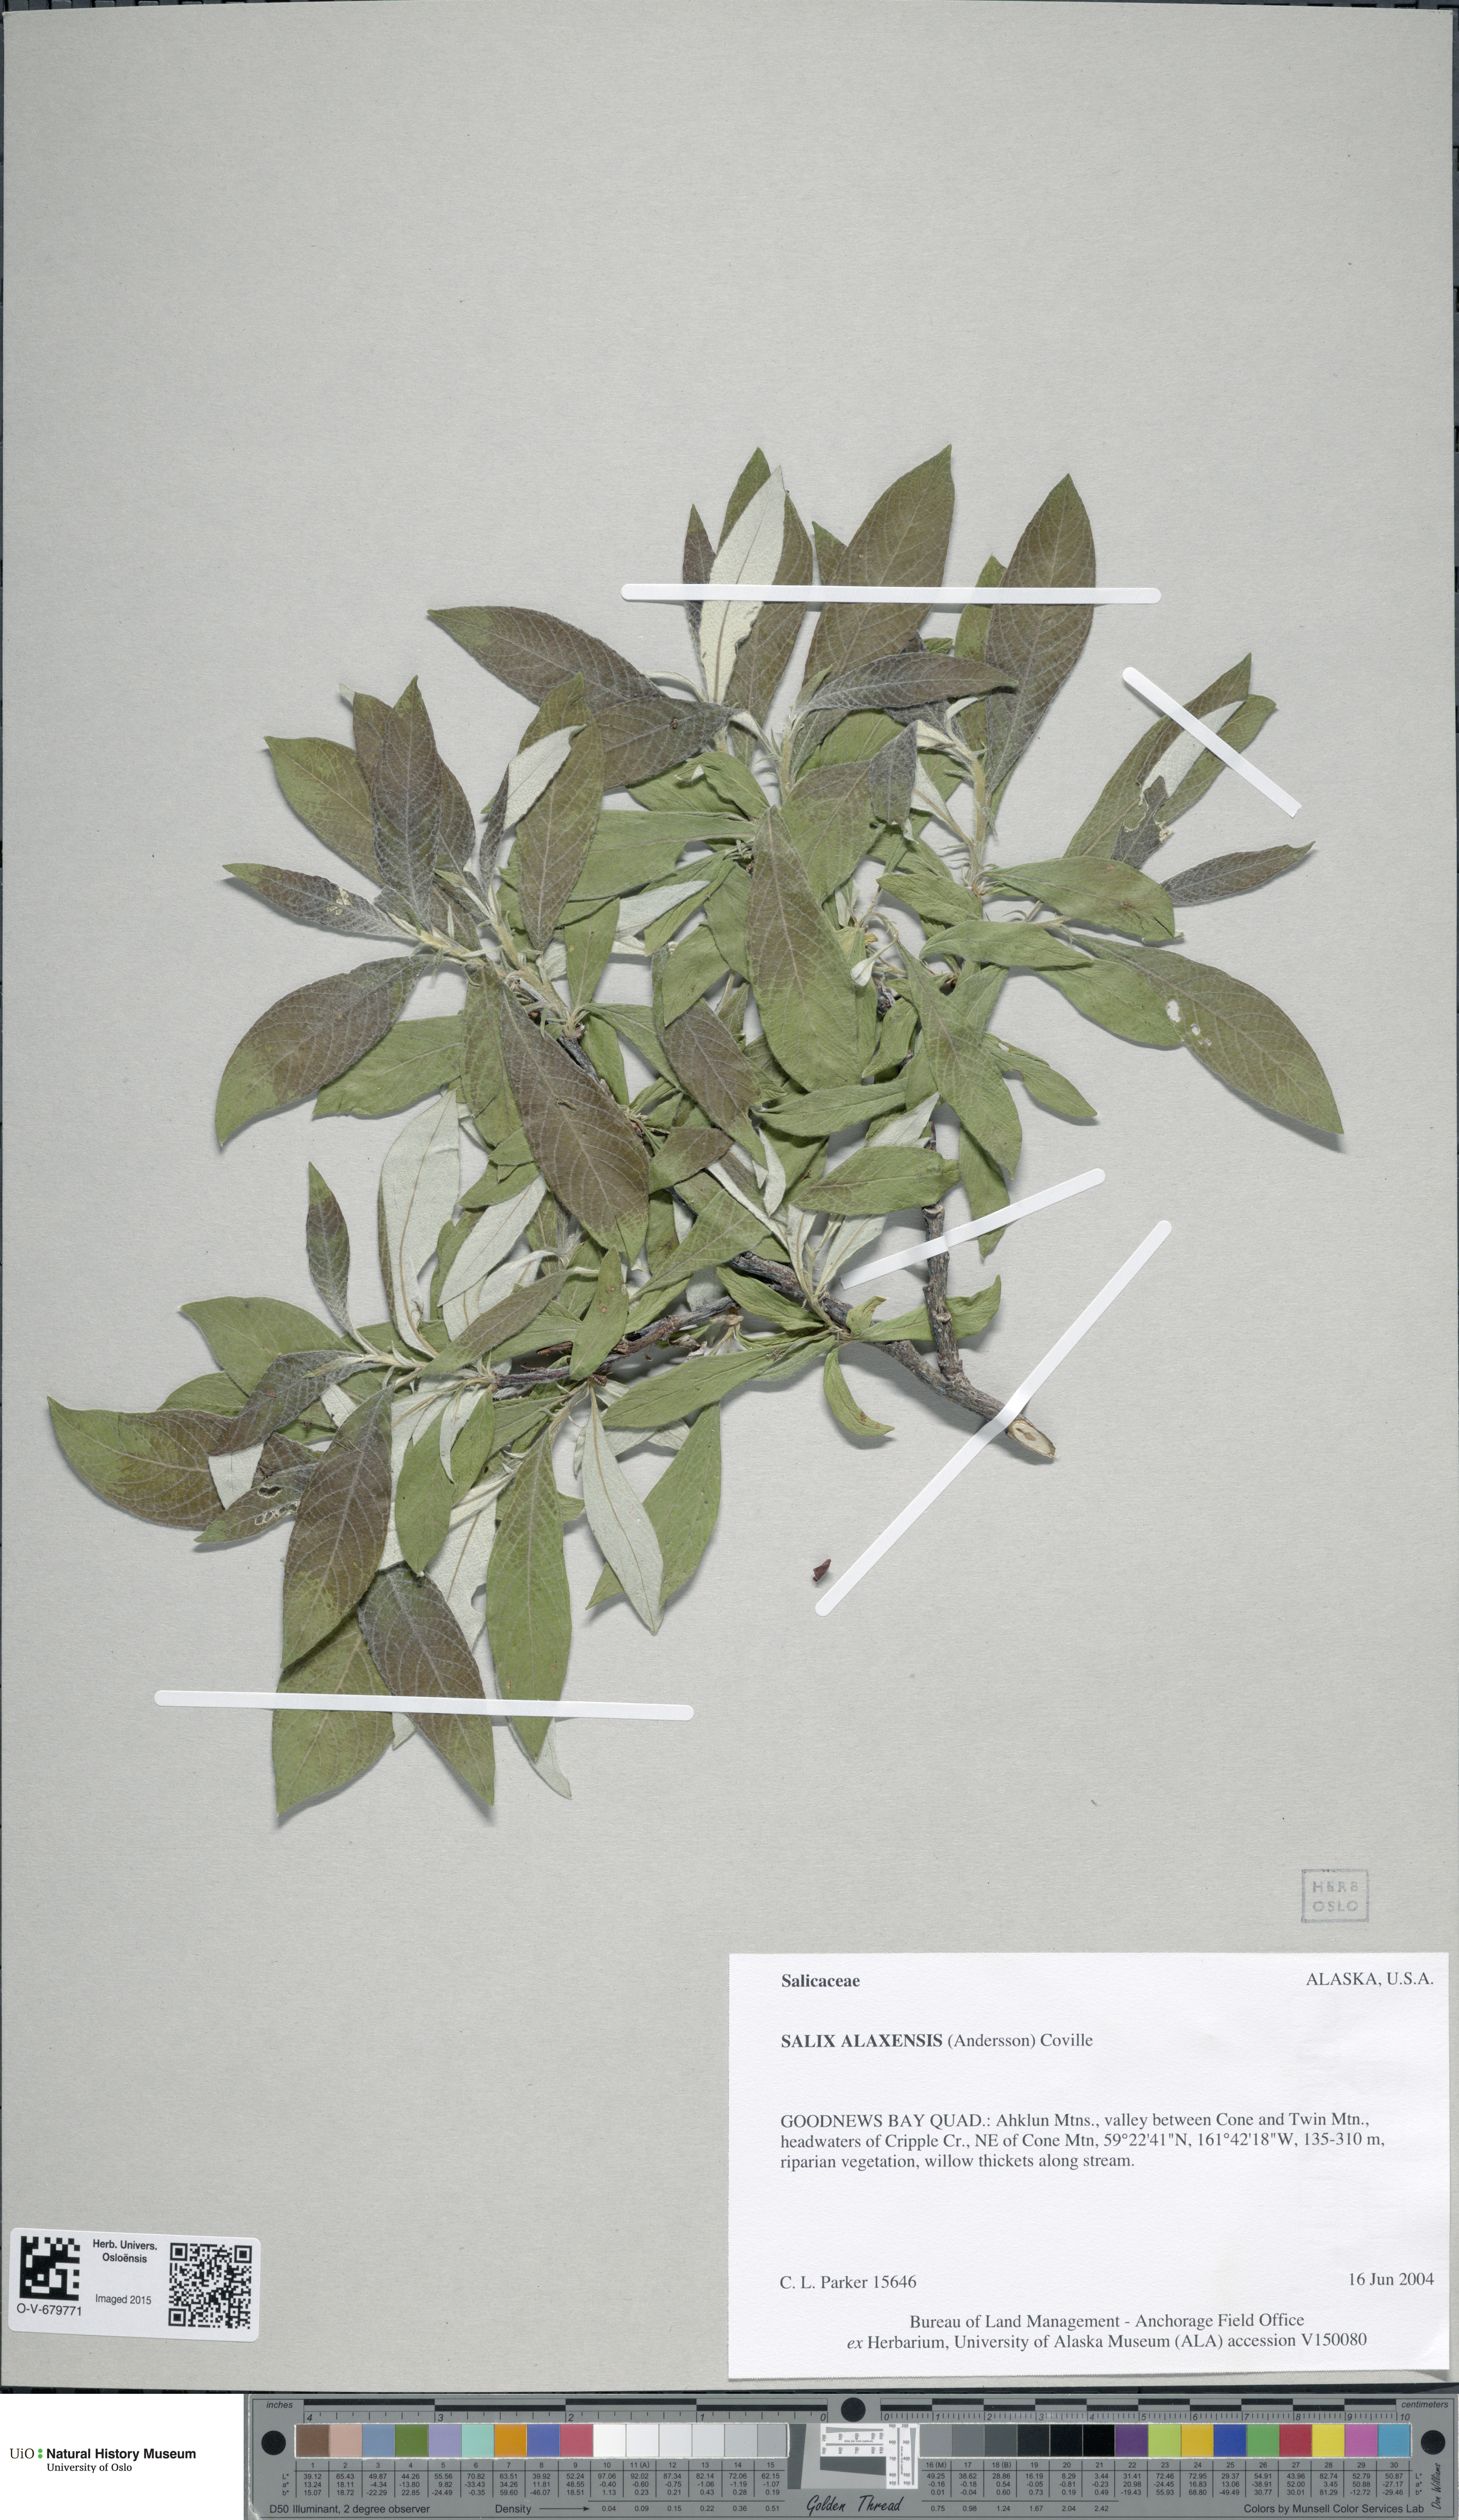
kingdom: Plantae
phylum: Tracheophyta
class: Magnoliopsida
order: Malpighiales
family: Salicaceae
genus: Salix
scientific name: Salix alaxensis
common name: Feltleaf willow
